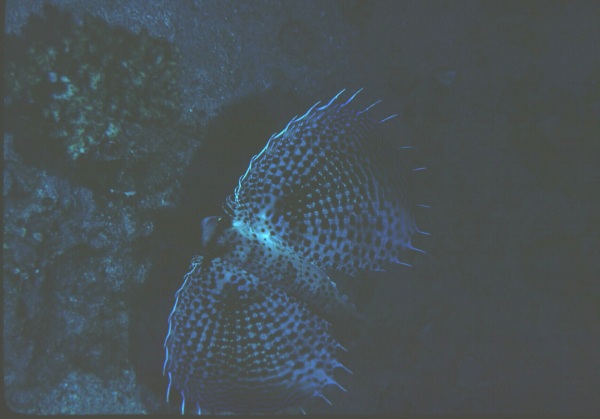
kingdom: Animalia
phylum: Chordata
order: Scorpaeniformes
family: Dactylopteridae
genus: Dactyloptena
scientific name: Dactyloptena orientalis
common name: Flying gurnard
